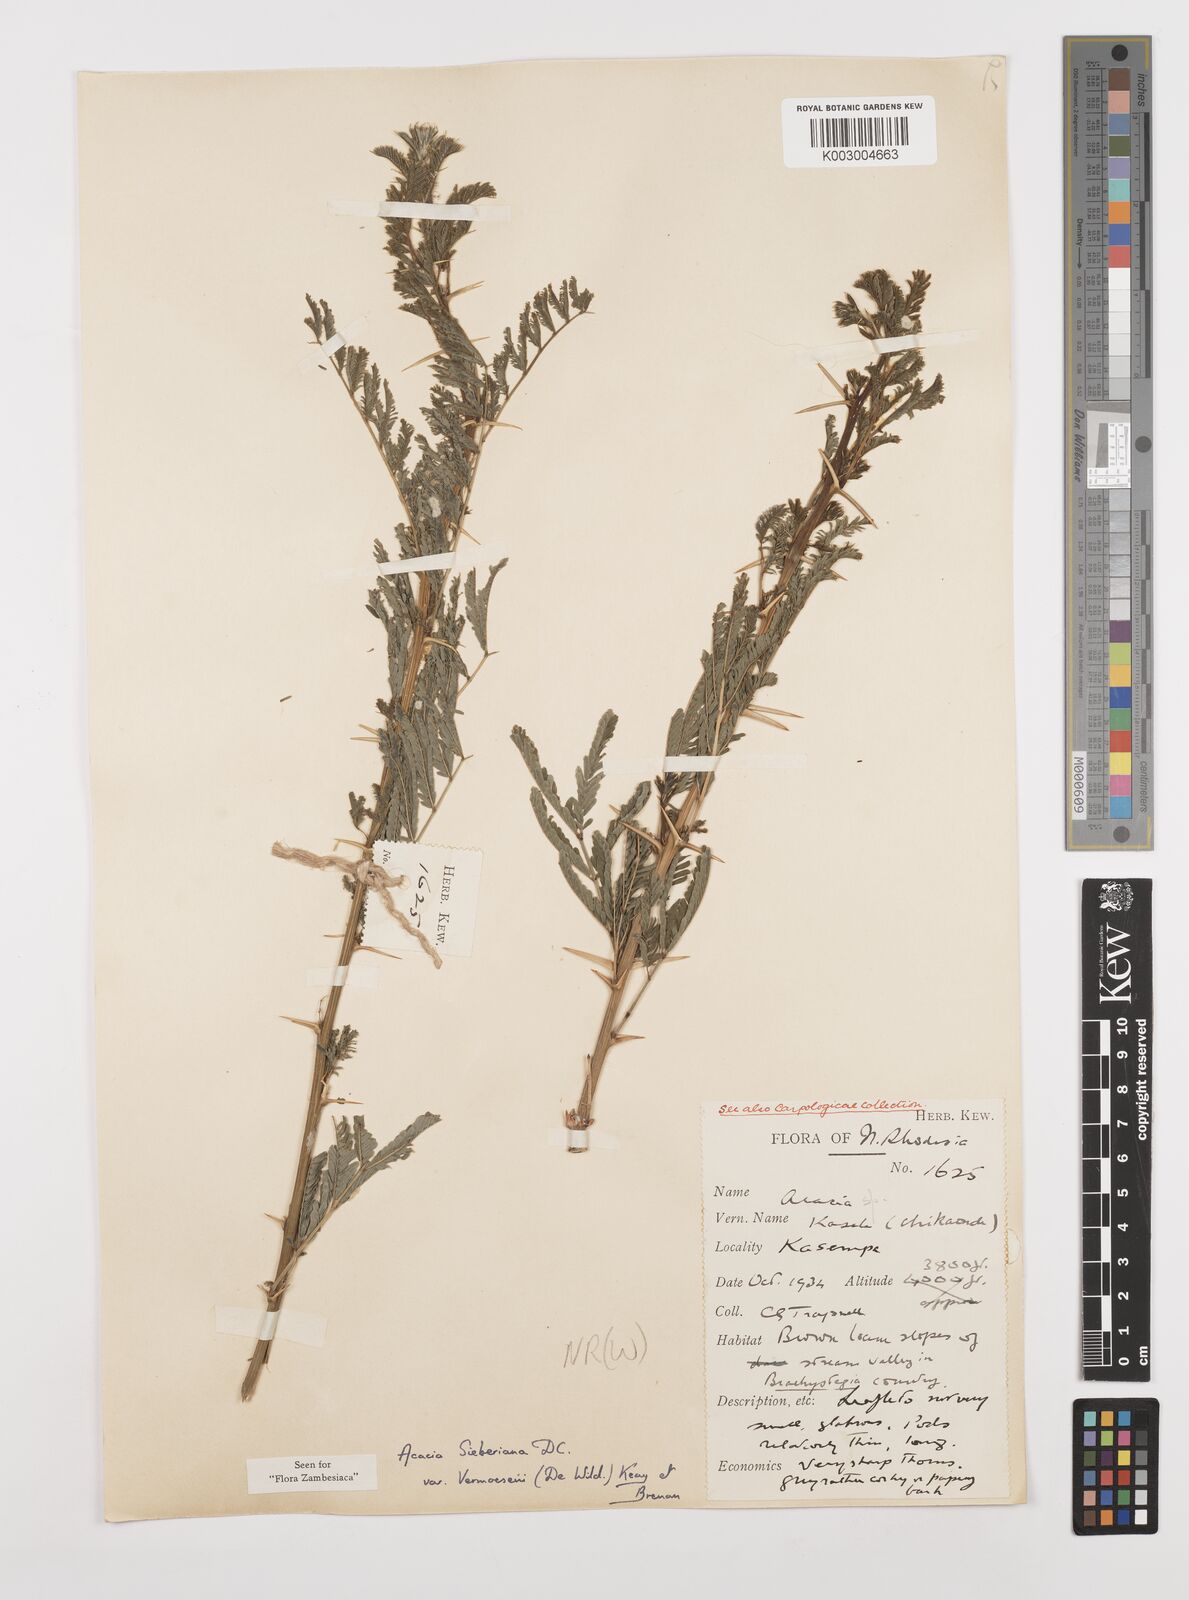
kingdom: Plantae
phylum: Tracheophyta
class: Magnoliopsida
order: Fabales
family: Fabaceae
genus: Vachellia
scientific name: Vachellia sieberiana
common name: Flat-topped thorn
